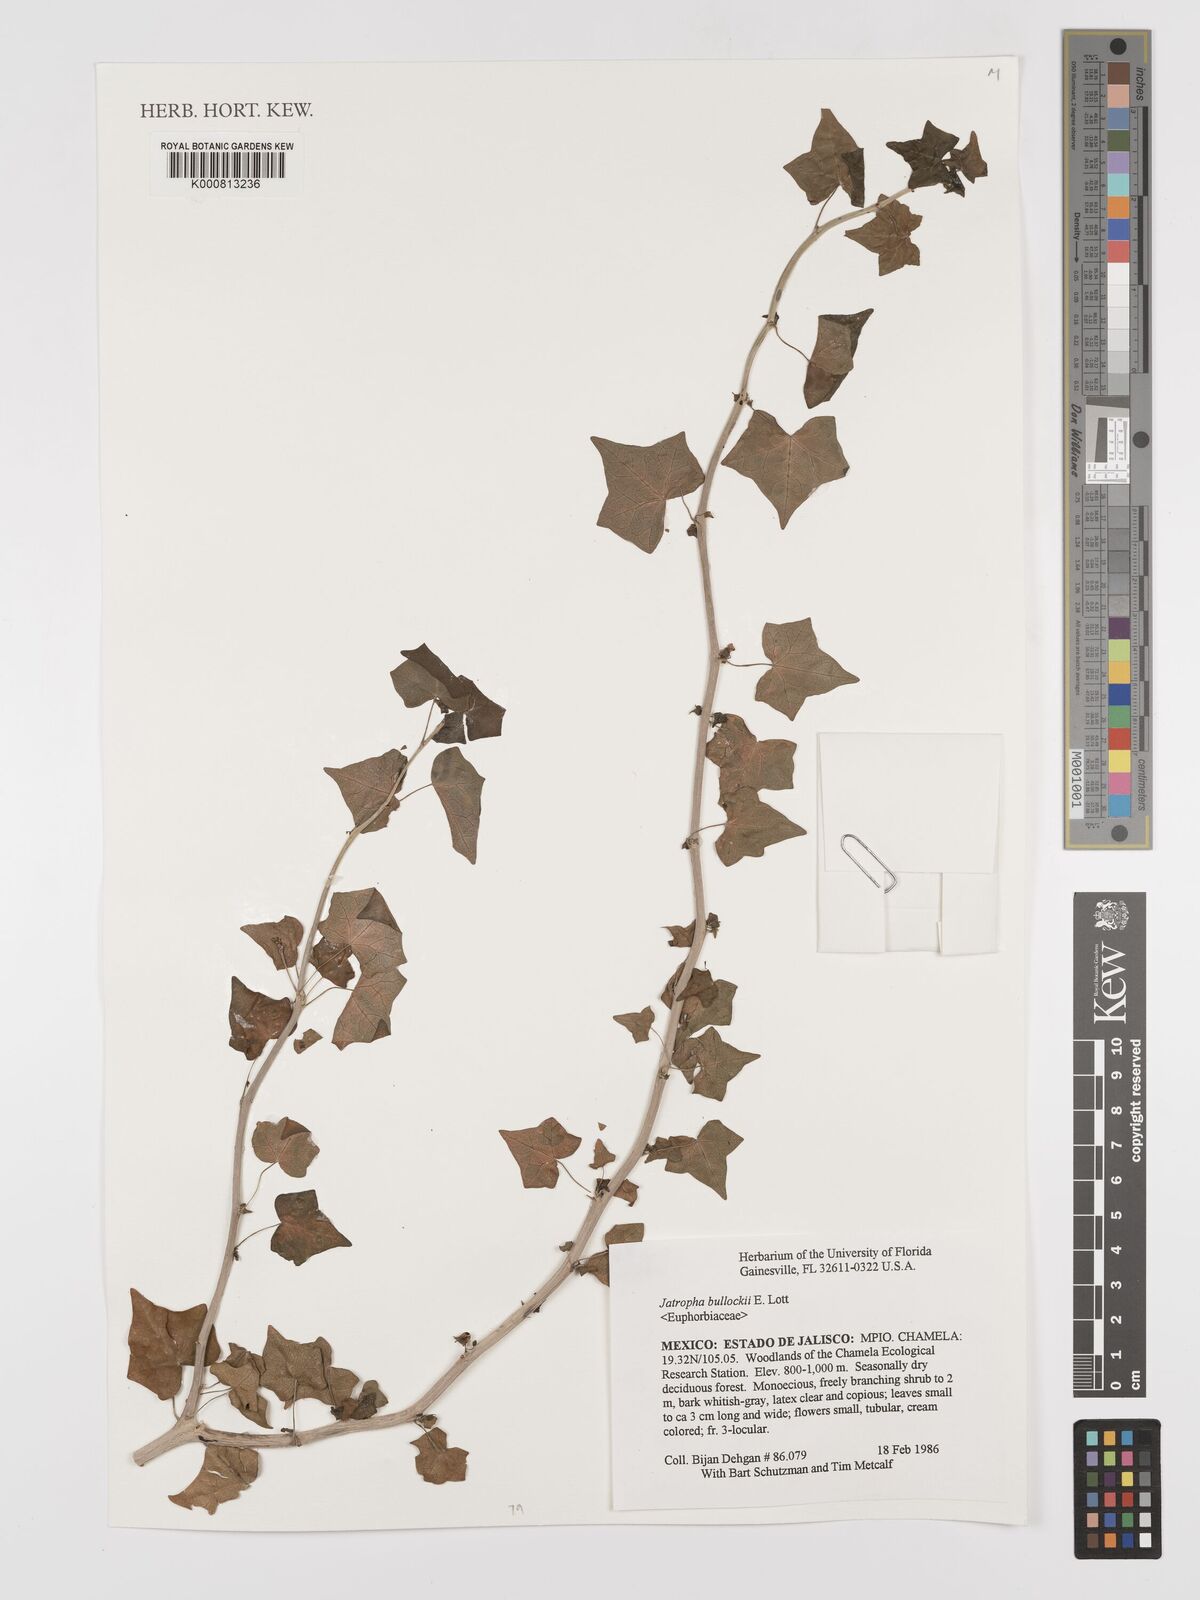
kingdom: Plantae
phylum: Tracheophyta
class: Magnoliopsida
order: Malpighiales
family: Euphorbiaceae
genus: Jatropha
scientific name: Jatropha bullockii
